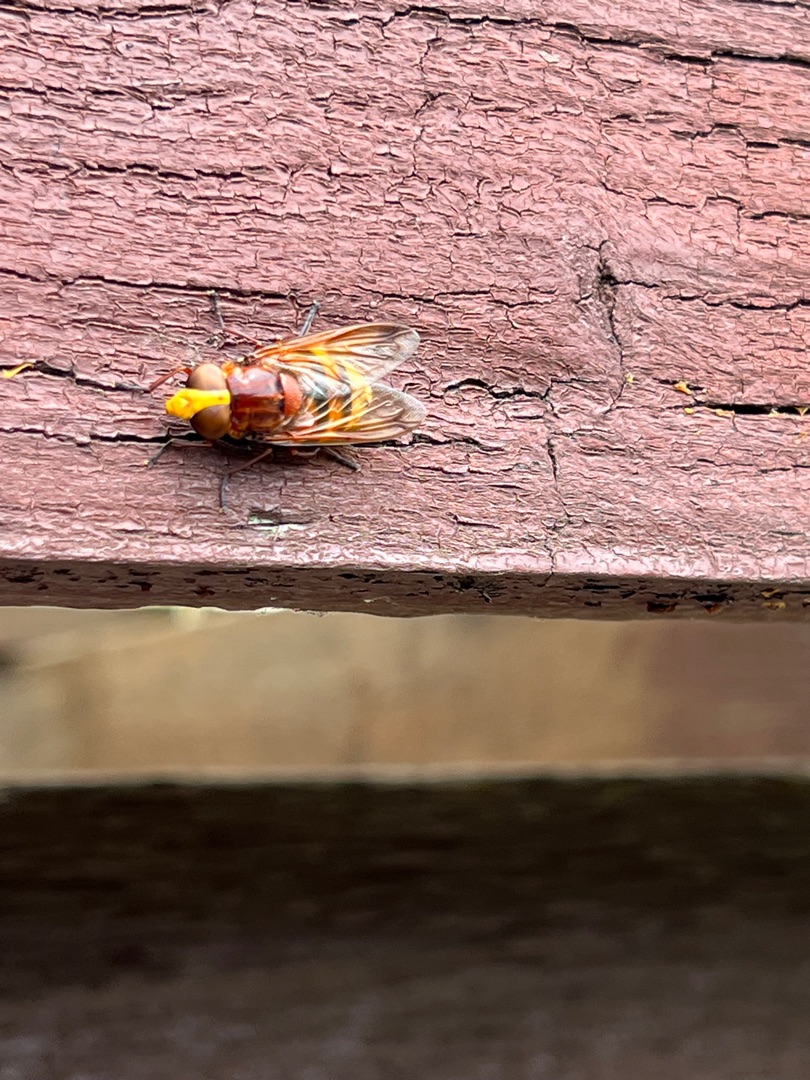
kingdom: Animalia
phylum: Arthropoda
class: Insecta
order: Diptera
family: Syrphidae
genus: Volucella
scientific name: Volucella zonaria
